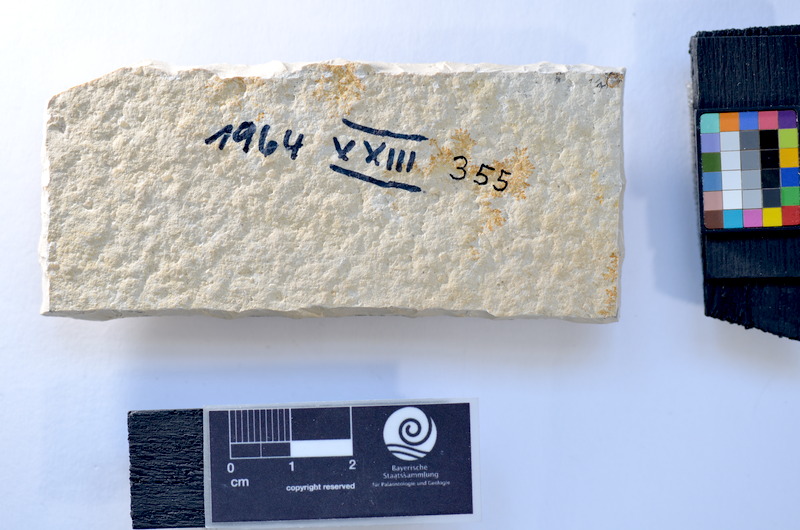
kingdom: Animalia
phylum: Chordata
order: Salmoniformes
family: Orthogonikleithridae
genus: Leptolepides
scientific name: Leptolepides
